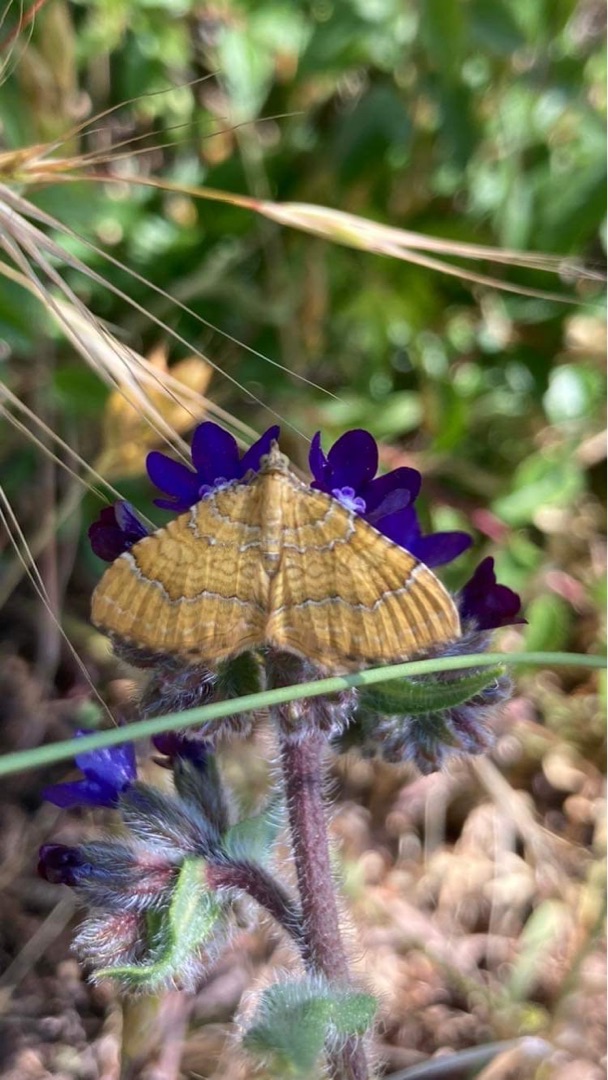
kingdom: Animalia
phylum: Arthropoda
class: Insecta
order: Lepidoptera
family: Geometridae
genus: Camptogramma
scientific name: Camptogramma bilineata
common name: Okkergul bladmåler
